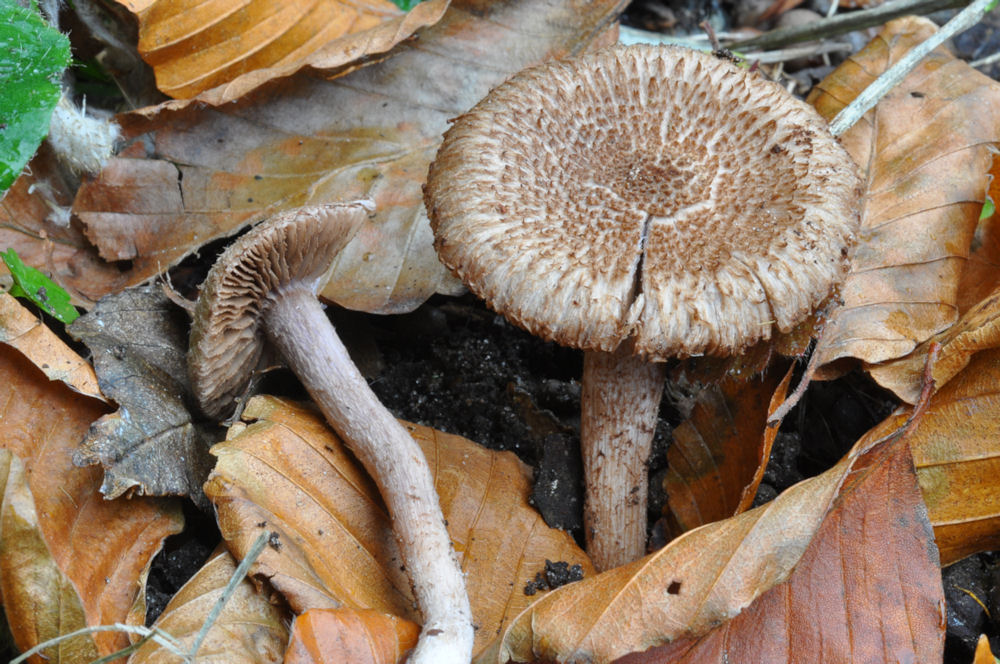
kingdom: Fungi
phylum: Basidiomycota
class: Agaricomycetes
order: Agaricales
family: Inocybaceae
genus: Inocybe
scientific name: Inocybe cincinnata
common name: lillabladet trævlhat
